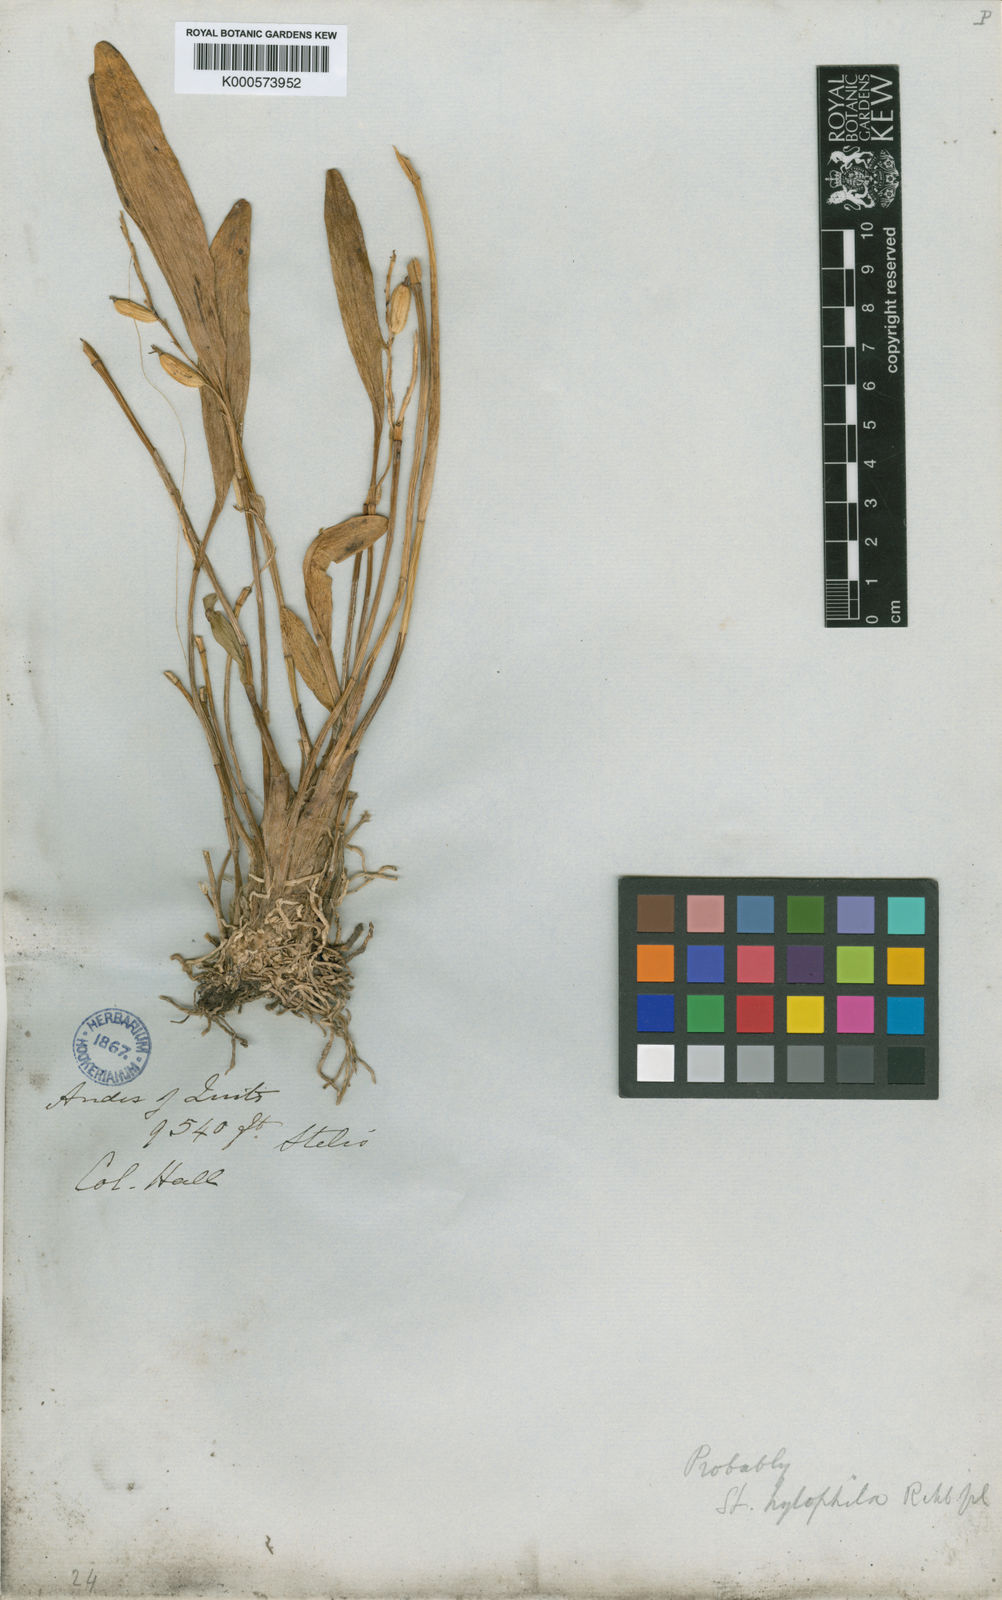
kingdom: Plantae
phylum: Tracheophyta
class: Liliopsida
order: Asparagales
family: Orchidaceae
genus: Stelis
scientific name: Stelis hylophila
